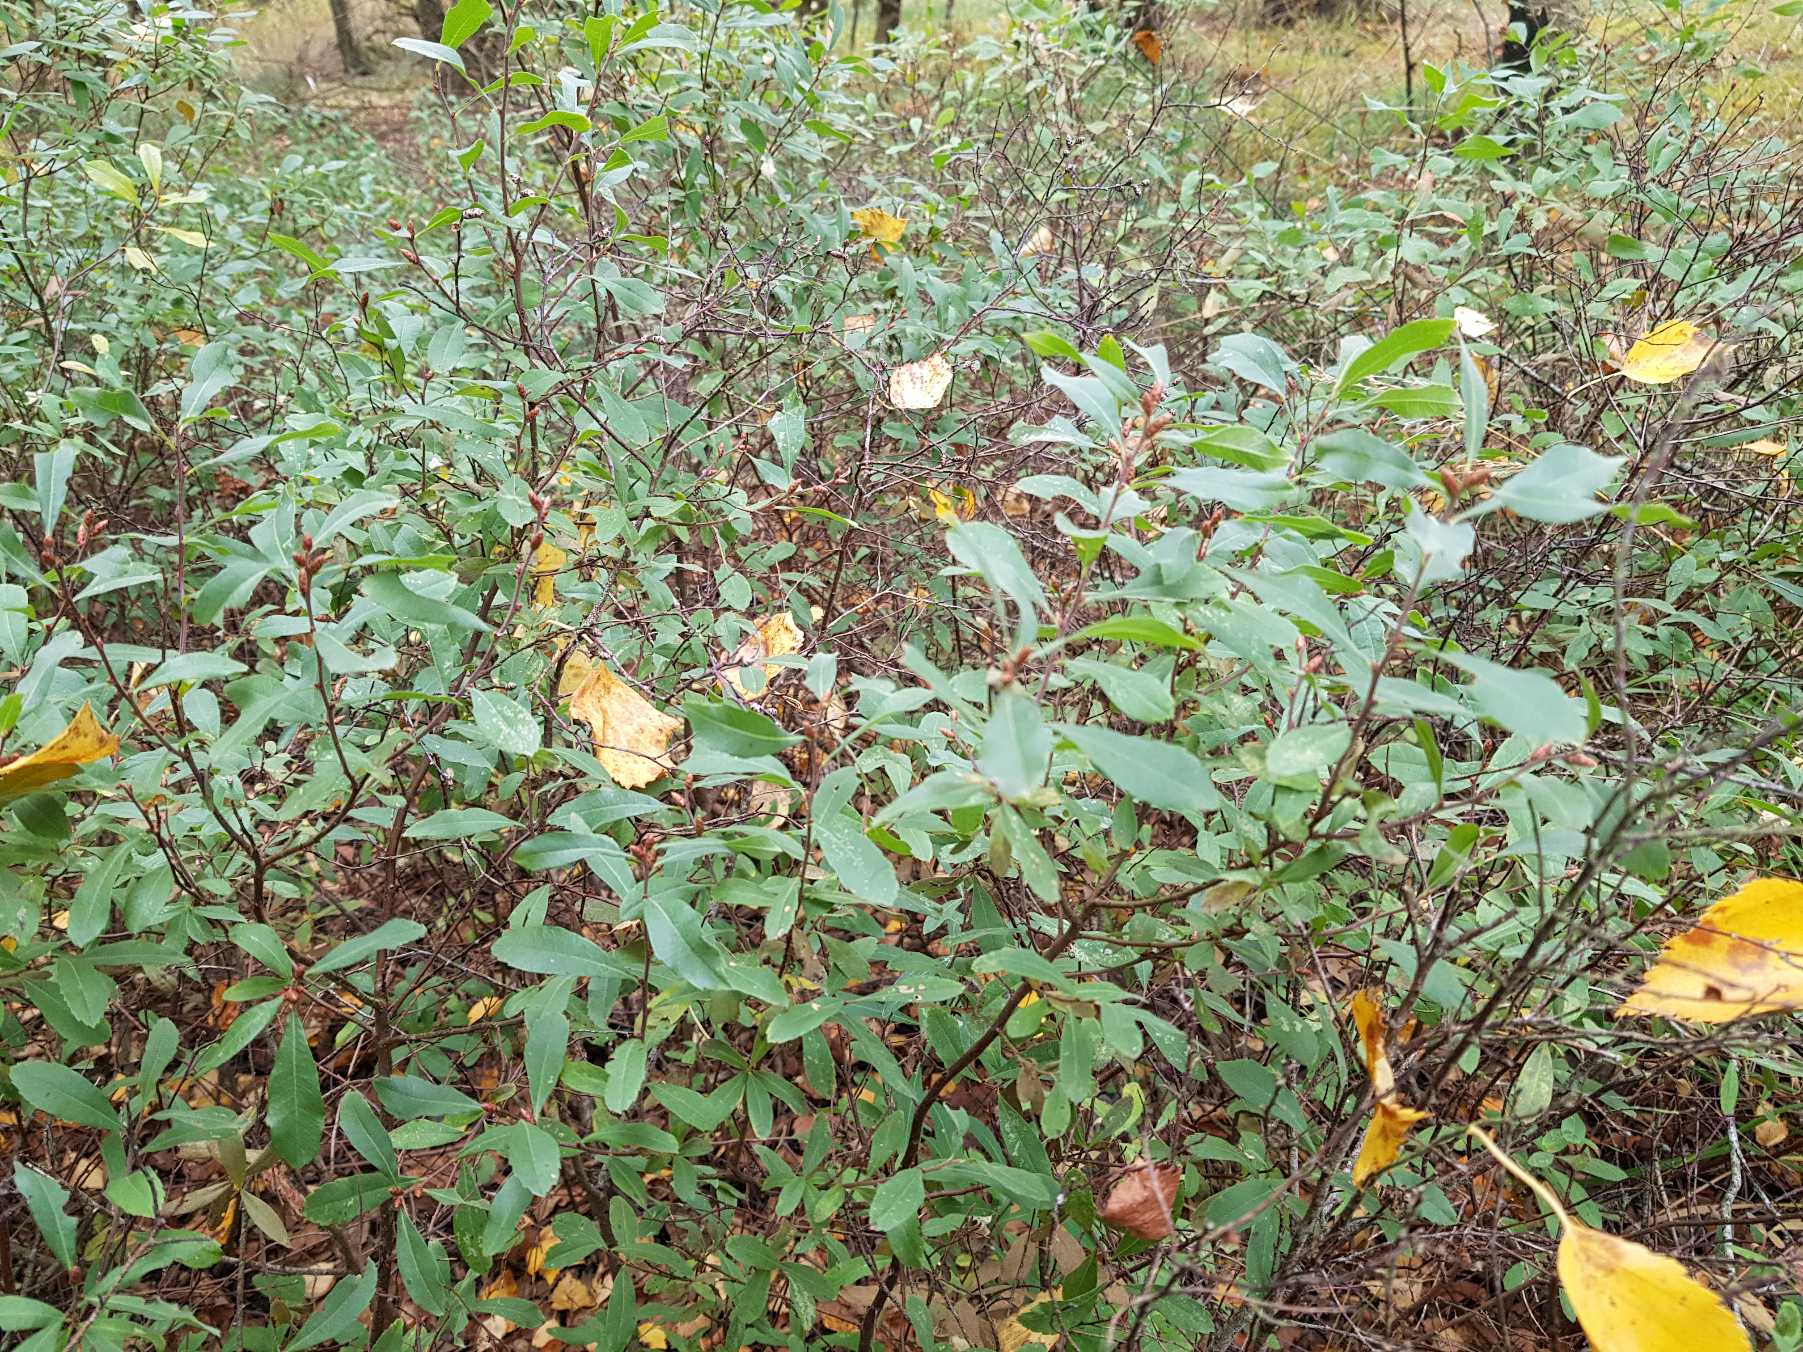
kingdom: Plantae
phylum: Tracheophyta
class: Magnoliopsida
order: Fagales
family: Myricaceae
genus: Myrica
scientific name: Myrica gale
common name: Pors
